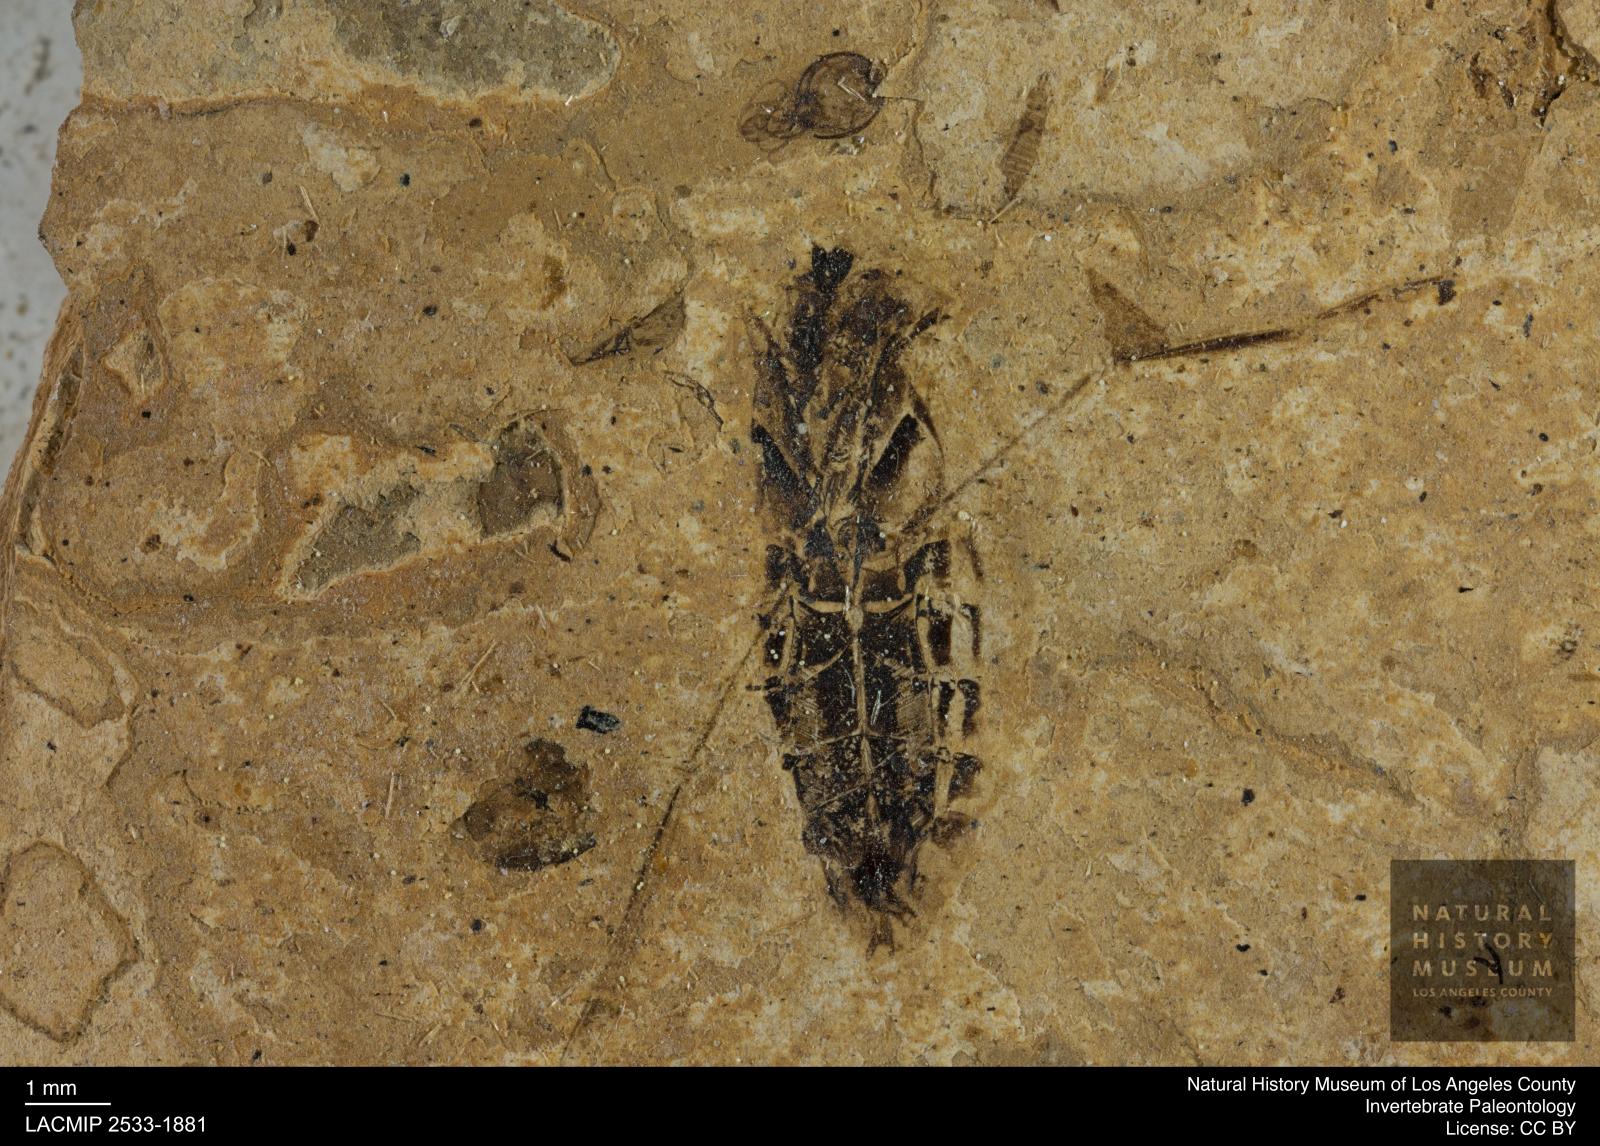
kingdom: Animalia
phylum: Arthropoda
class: Insecta
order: Hemiptera
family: Notonectidae
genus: Anisops
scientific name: Anisops Notonecta deichmuelleri
